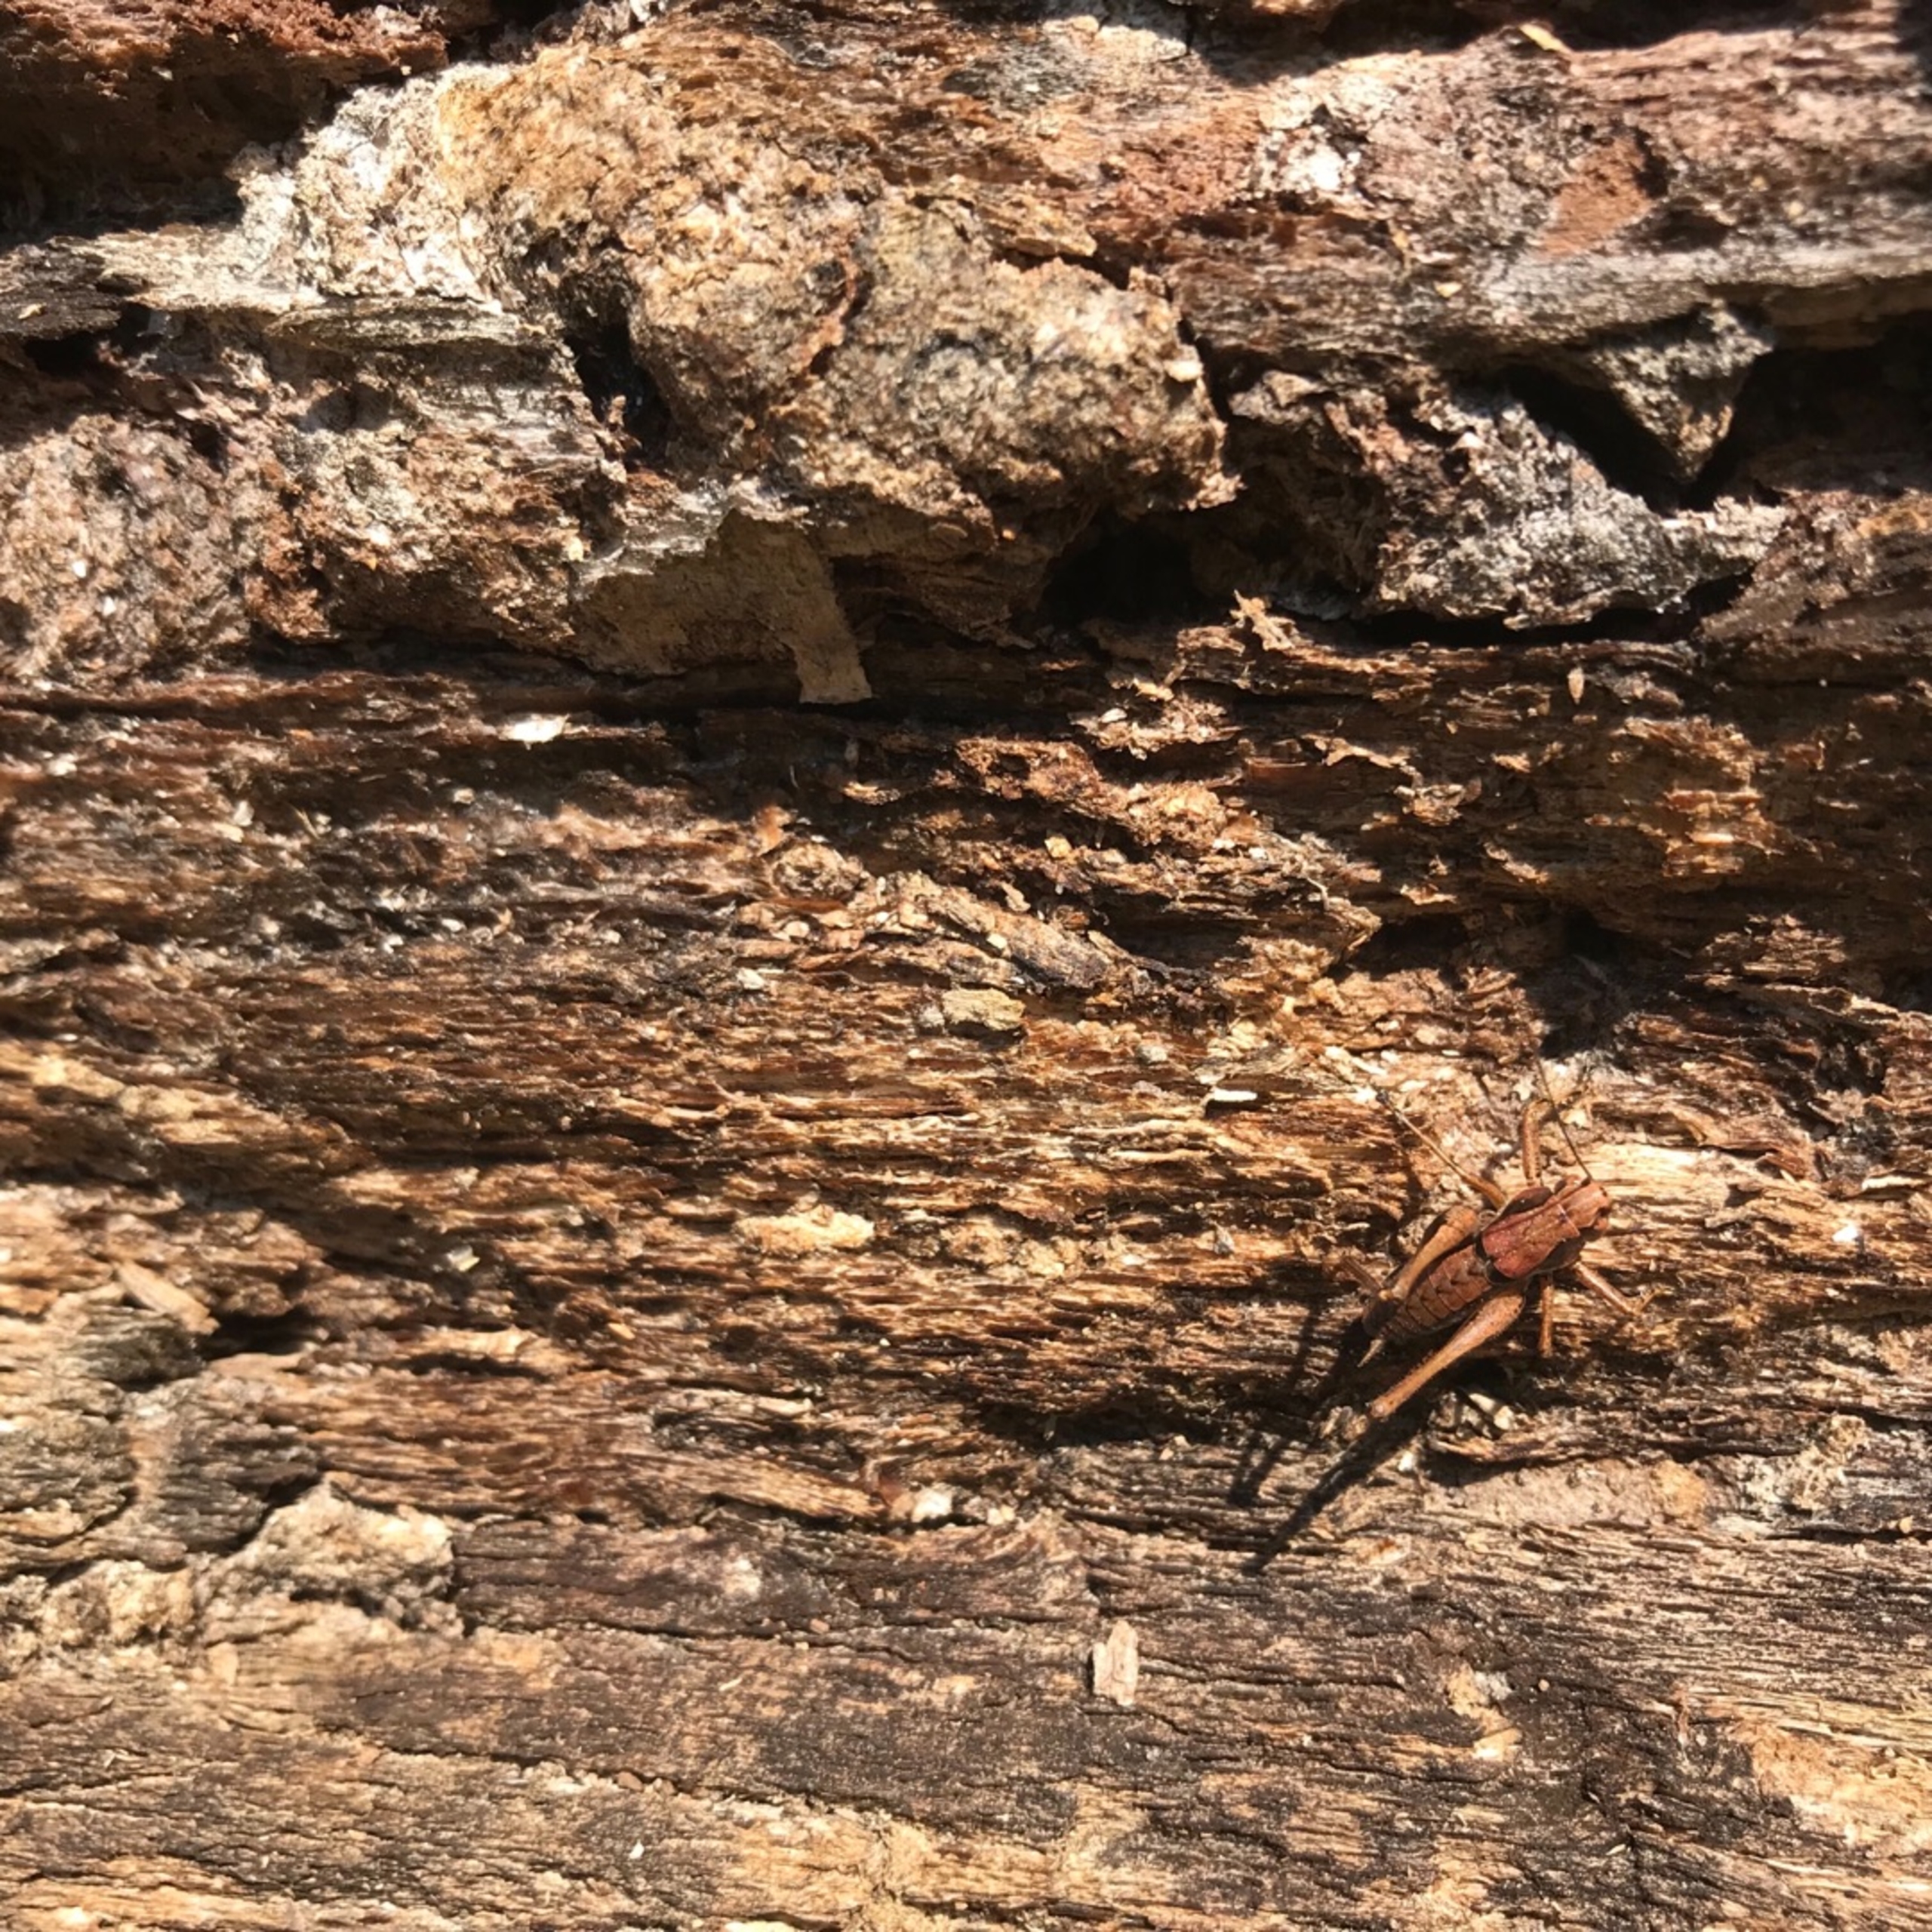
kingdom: Animalia
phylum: Arthropoda
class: Insecta
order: Orthoptera
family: Tettigoniidae
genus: Pholidoptera
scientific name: Pholidoptera griseoaptera
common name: Buskgræshoppe
